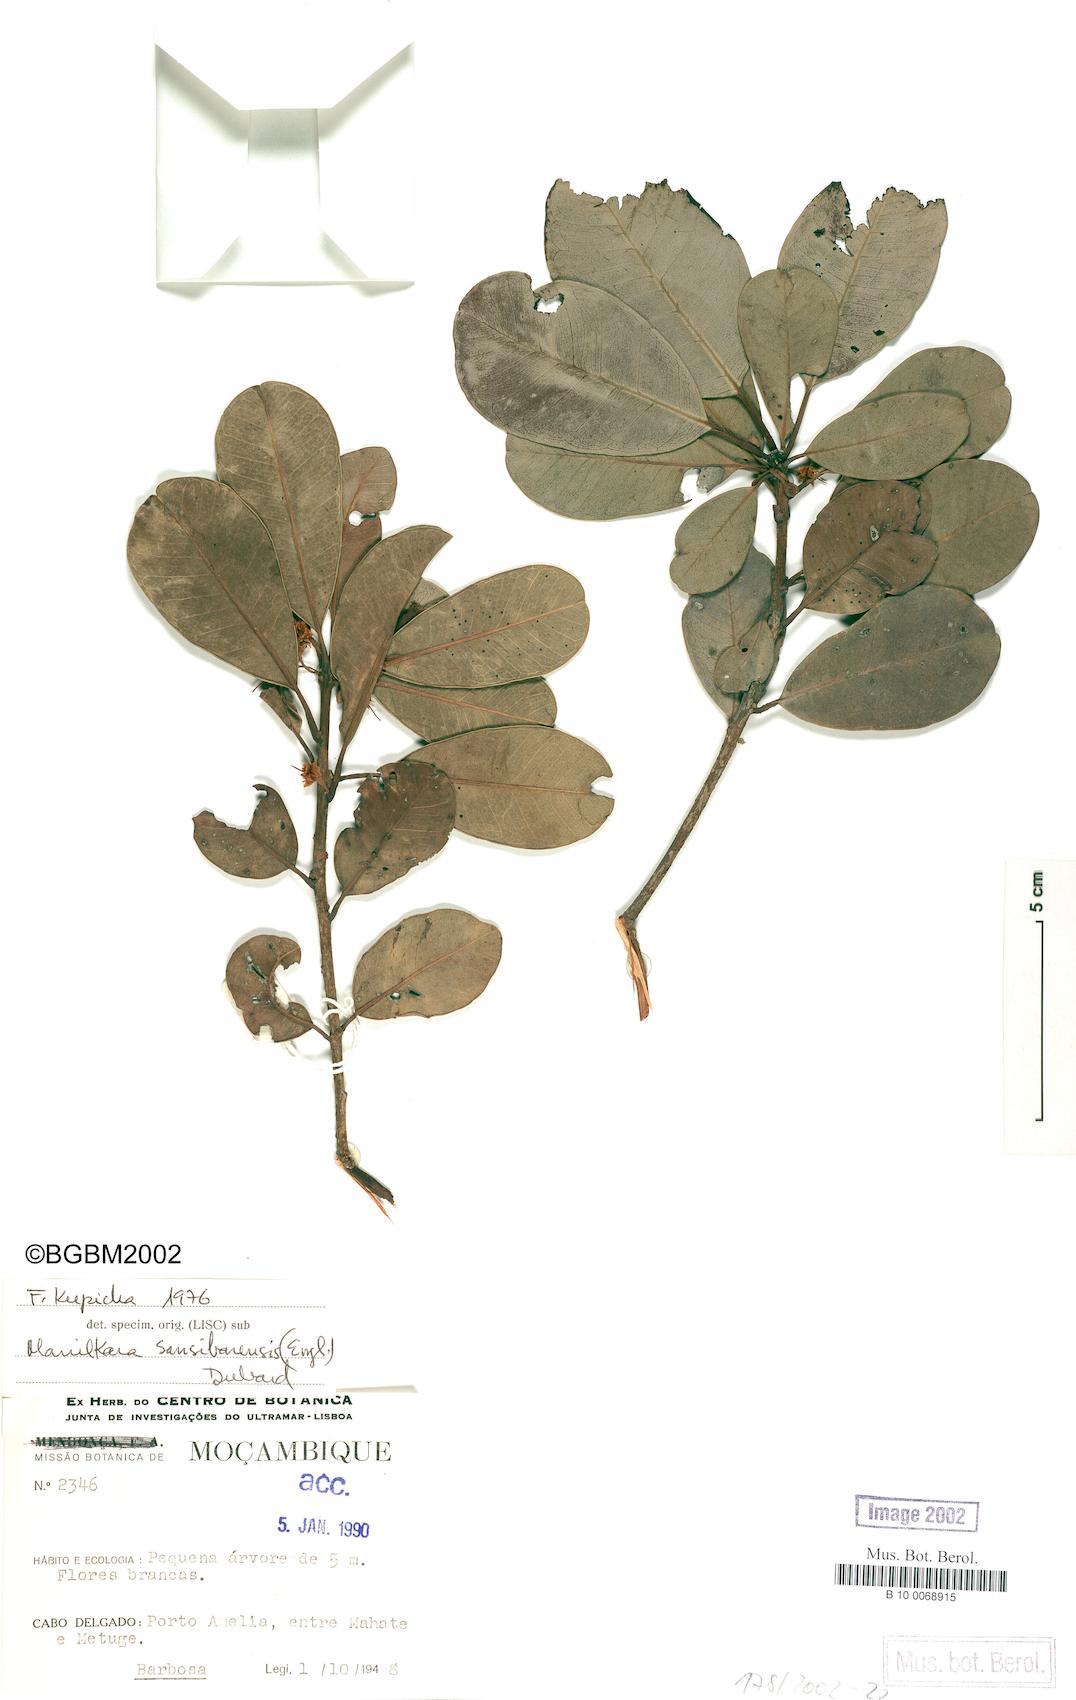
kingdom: Plantae
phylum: Tracheophyta
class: Magnoliopsida
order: Ericales
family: Sapotaceae
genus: Manilkara
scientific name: Manilkara sansibarensis
